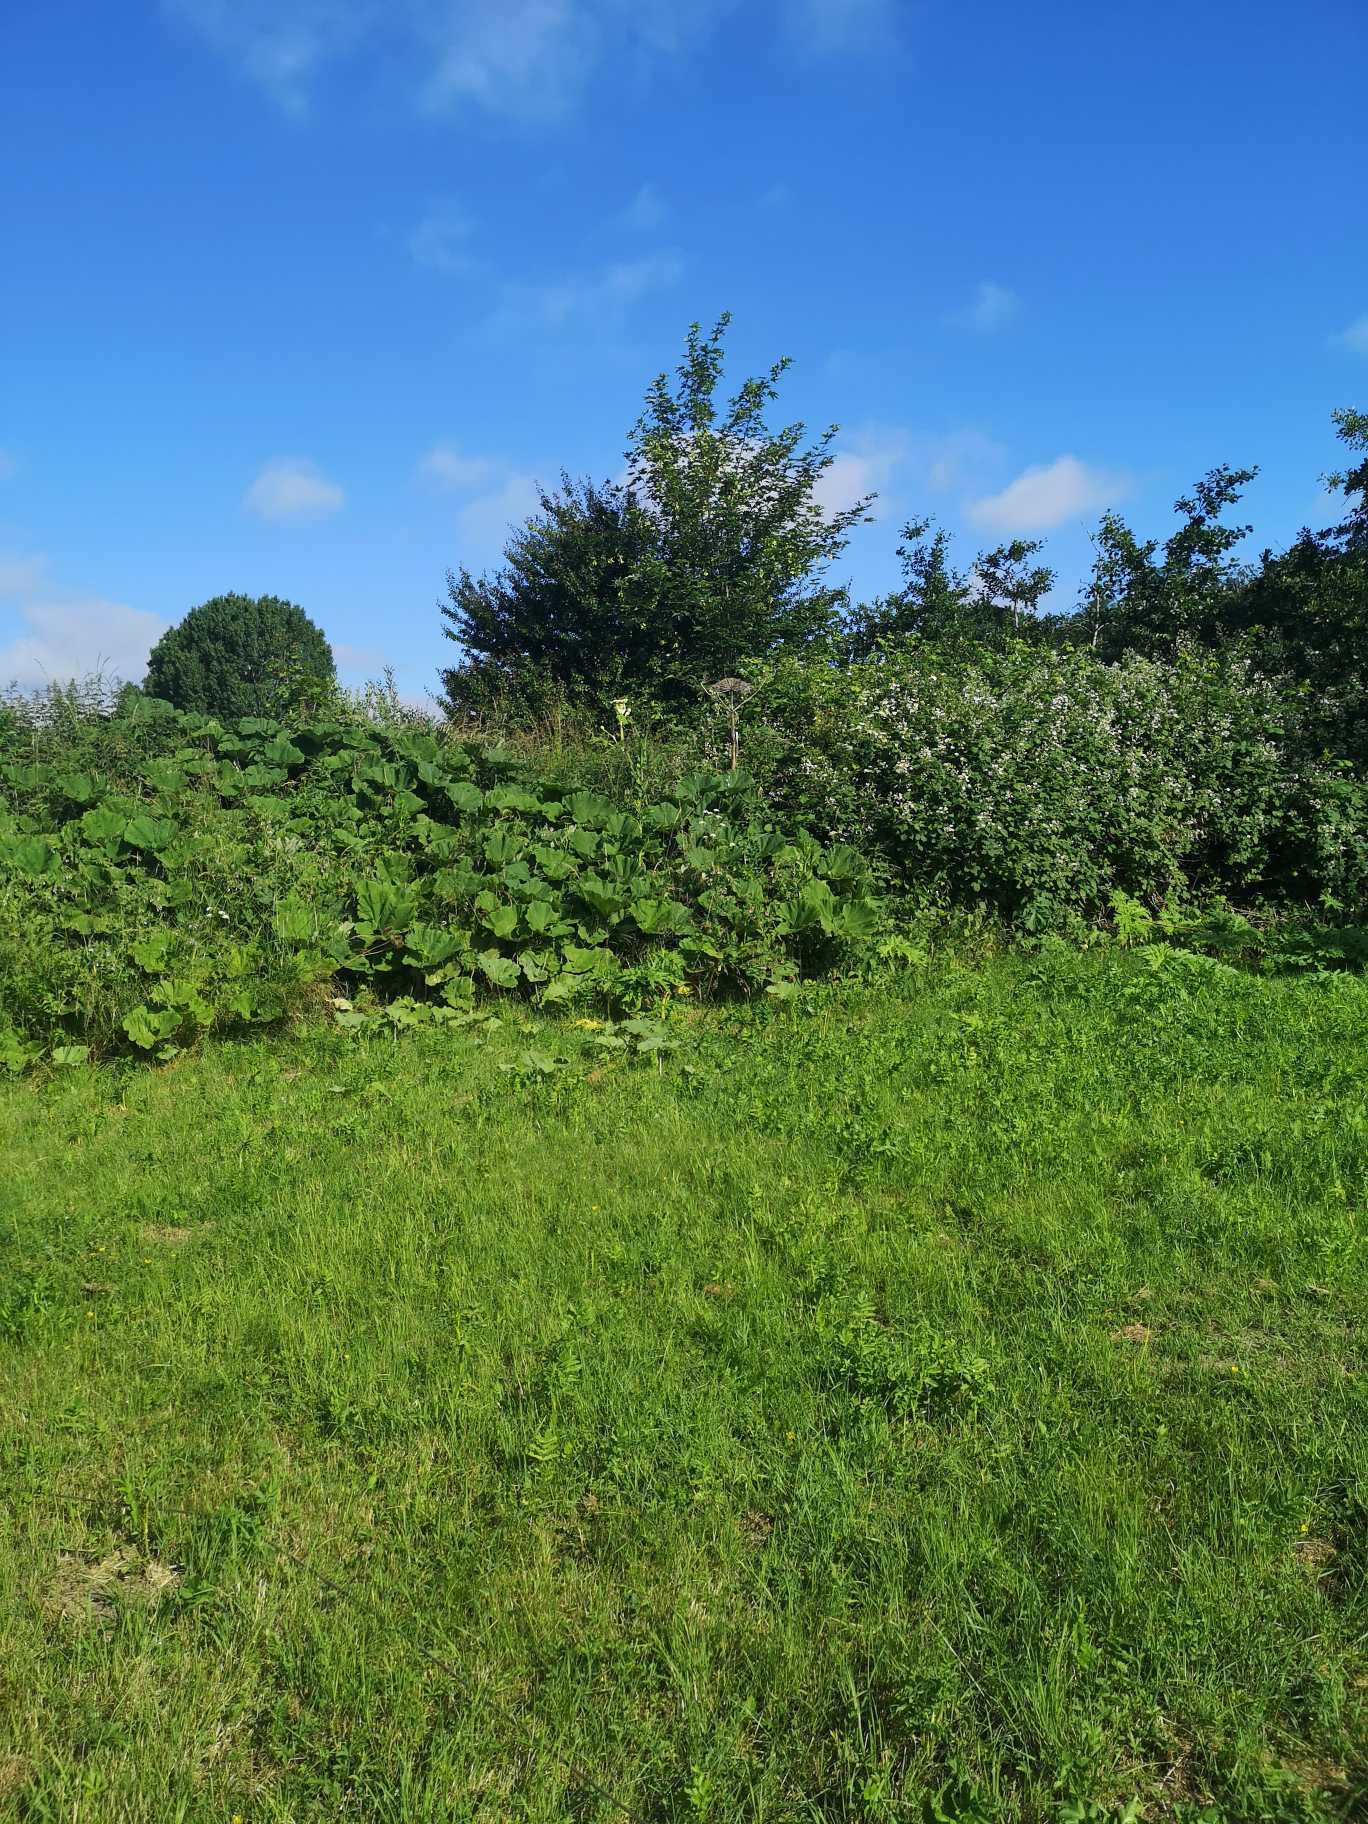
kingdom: Plantae
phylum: Tracheophyta
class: Magnoliopsida
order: Apiales
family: Apiaceae
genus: Heracleum
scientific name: Heracleum mantegazzianum
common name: Kæmpe-bjørneklo
